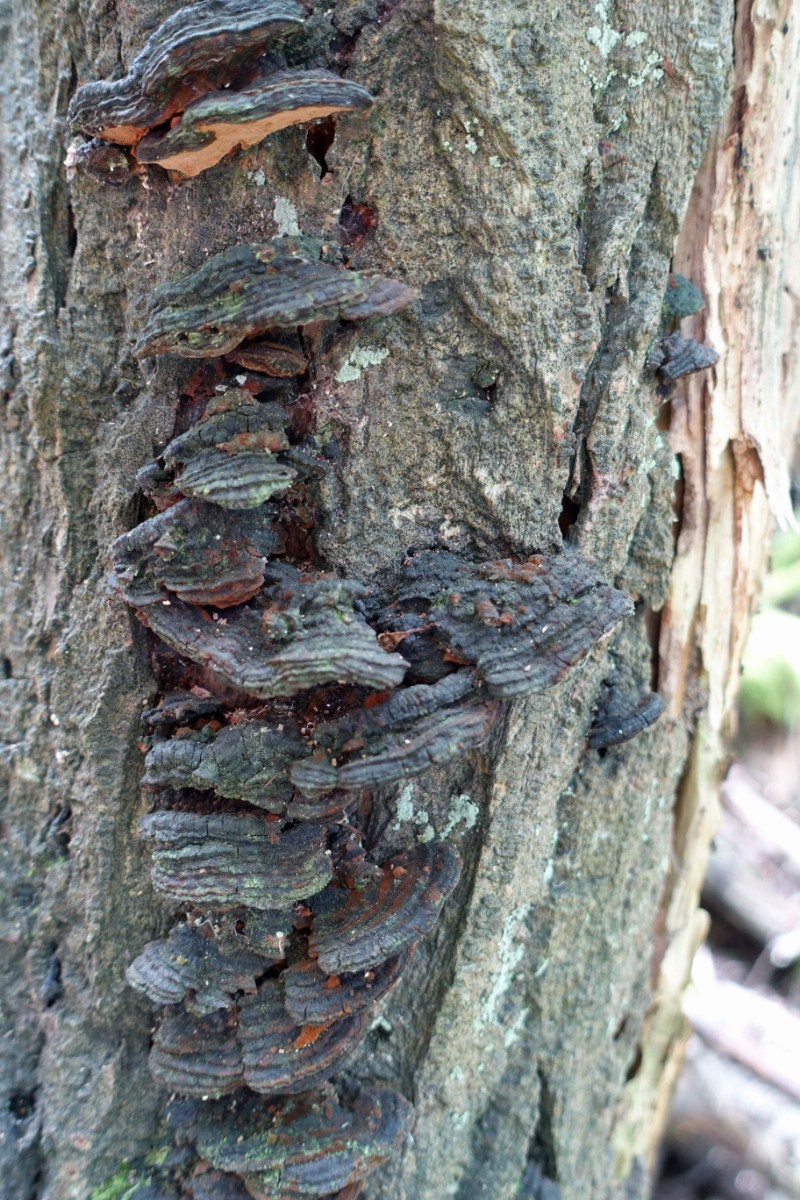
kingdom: Fungi
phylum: Basidiomycota
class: Agaricomycetes
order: Hymenochaetales
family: Hymenochaetaceae
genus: Phellinopsis
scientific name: Phellinopsis conchata
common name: pile-ildporesvamp
